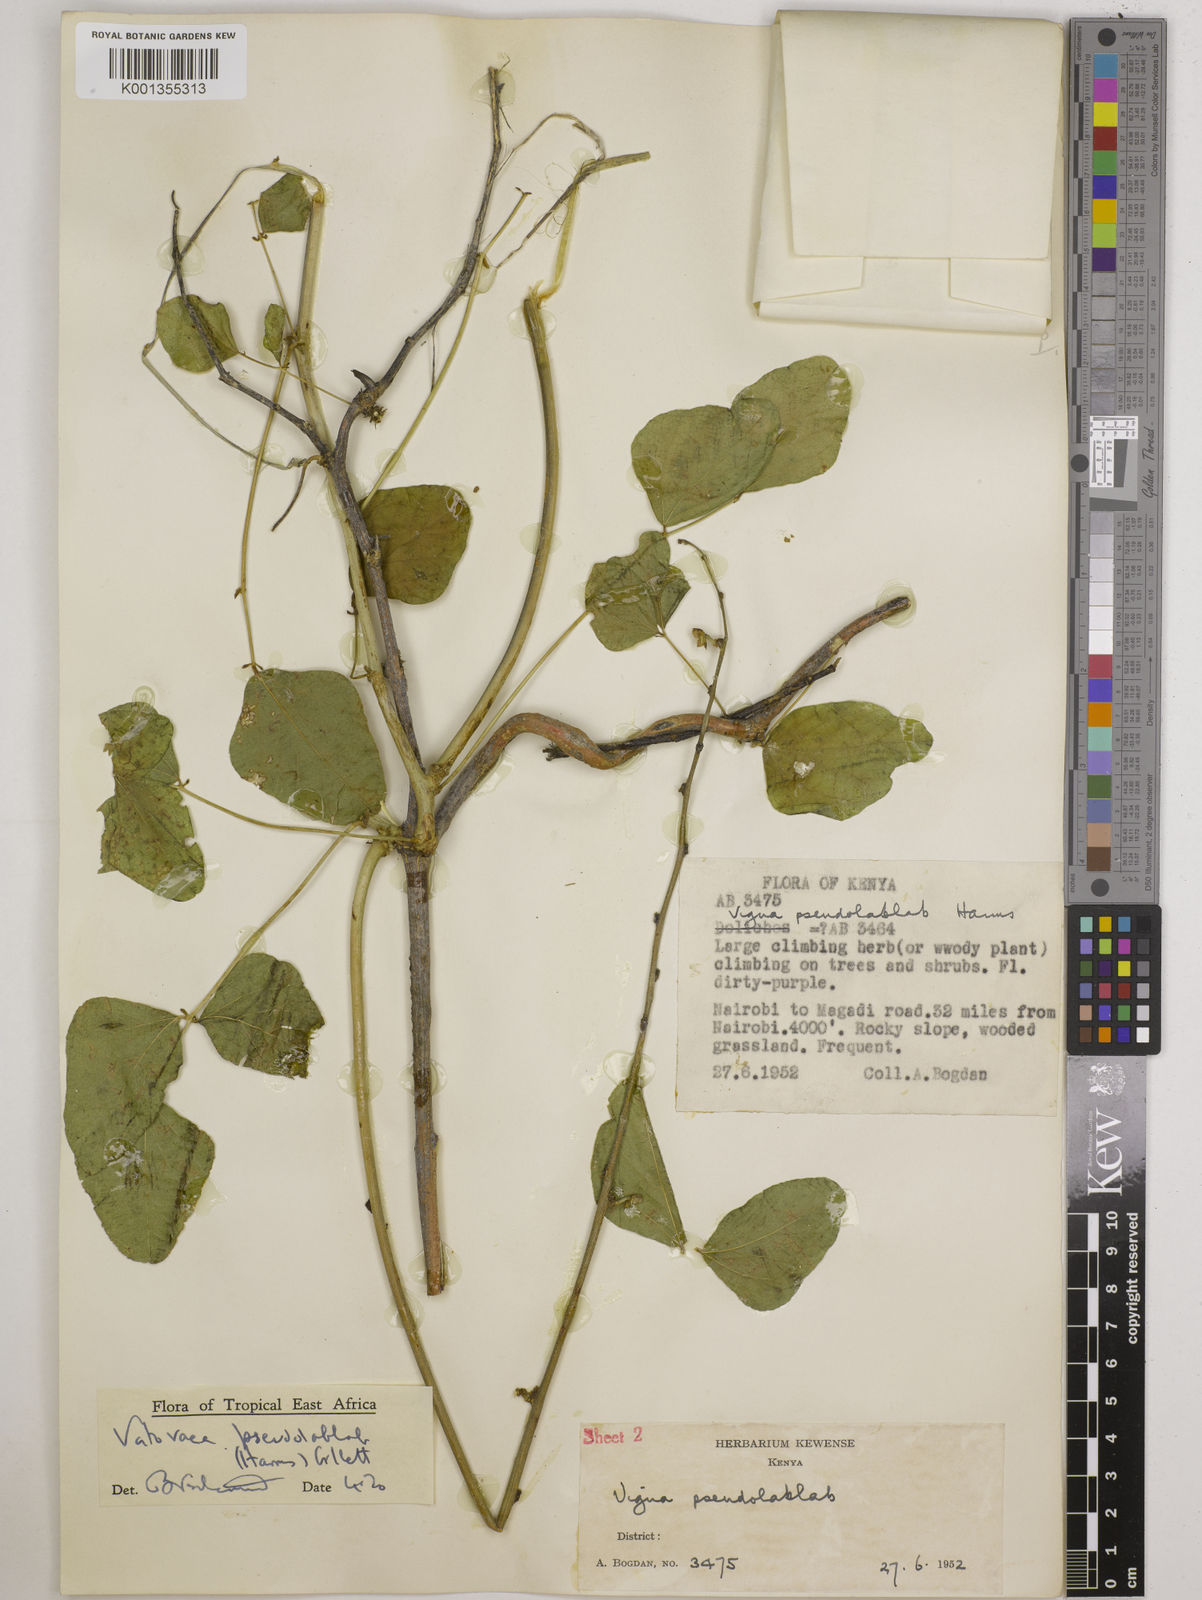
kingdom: Plantae
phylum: Tracheophyta
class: Magnoliopsida
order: Fabales
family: Fabaceae
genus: Vatovaea
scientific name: Vatovaea pseudolablab
